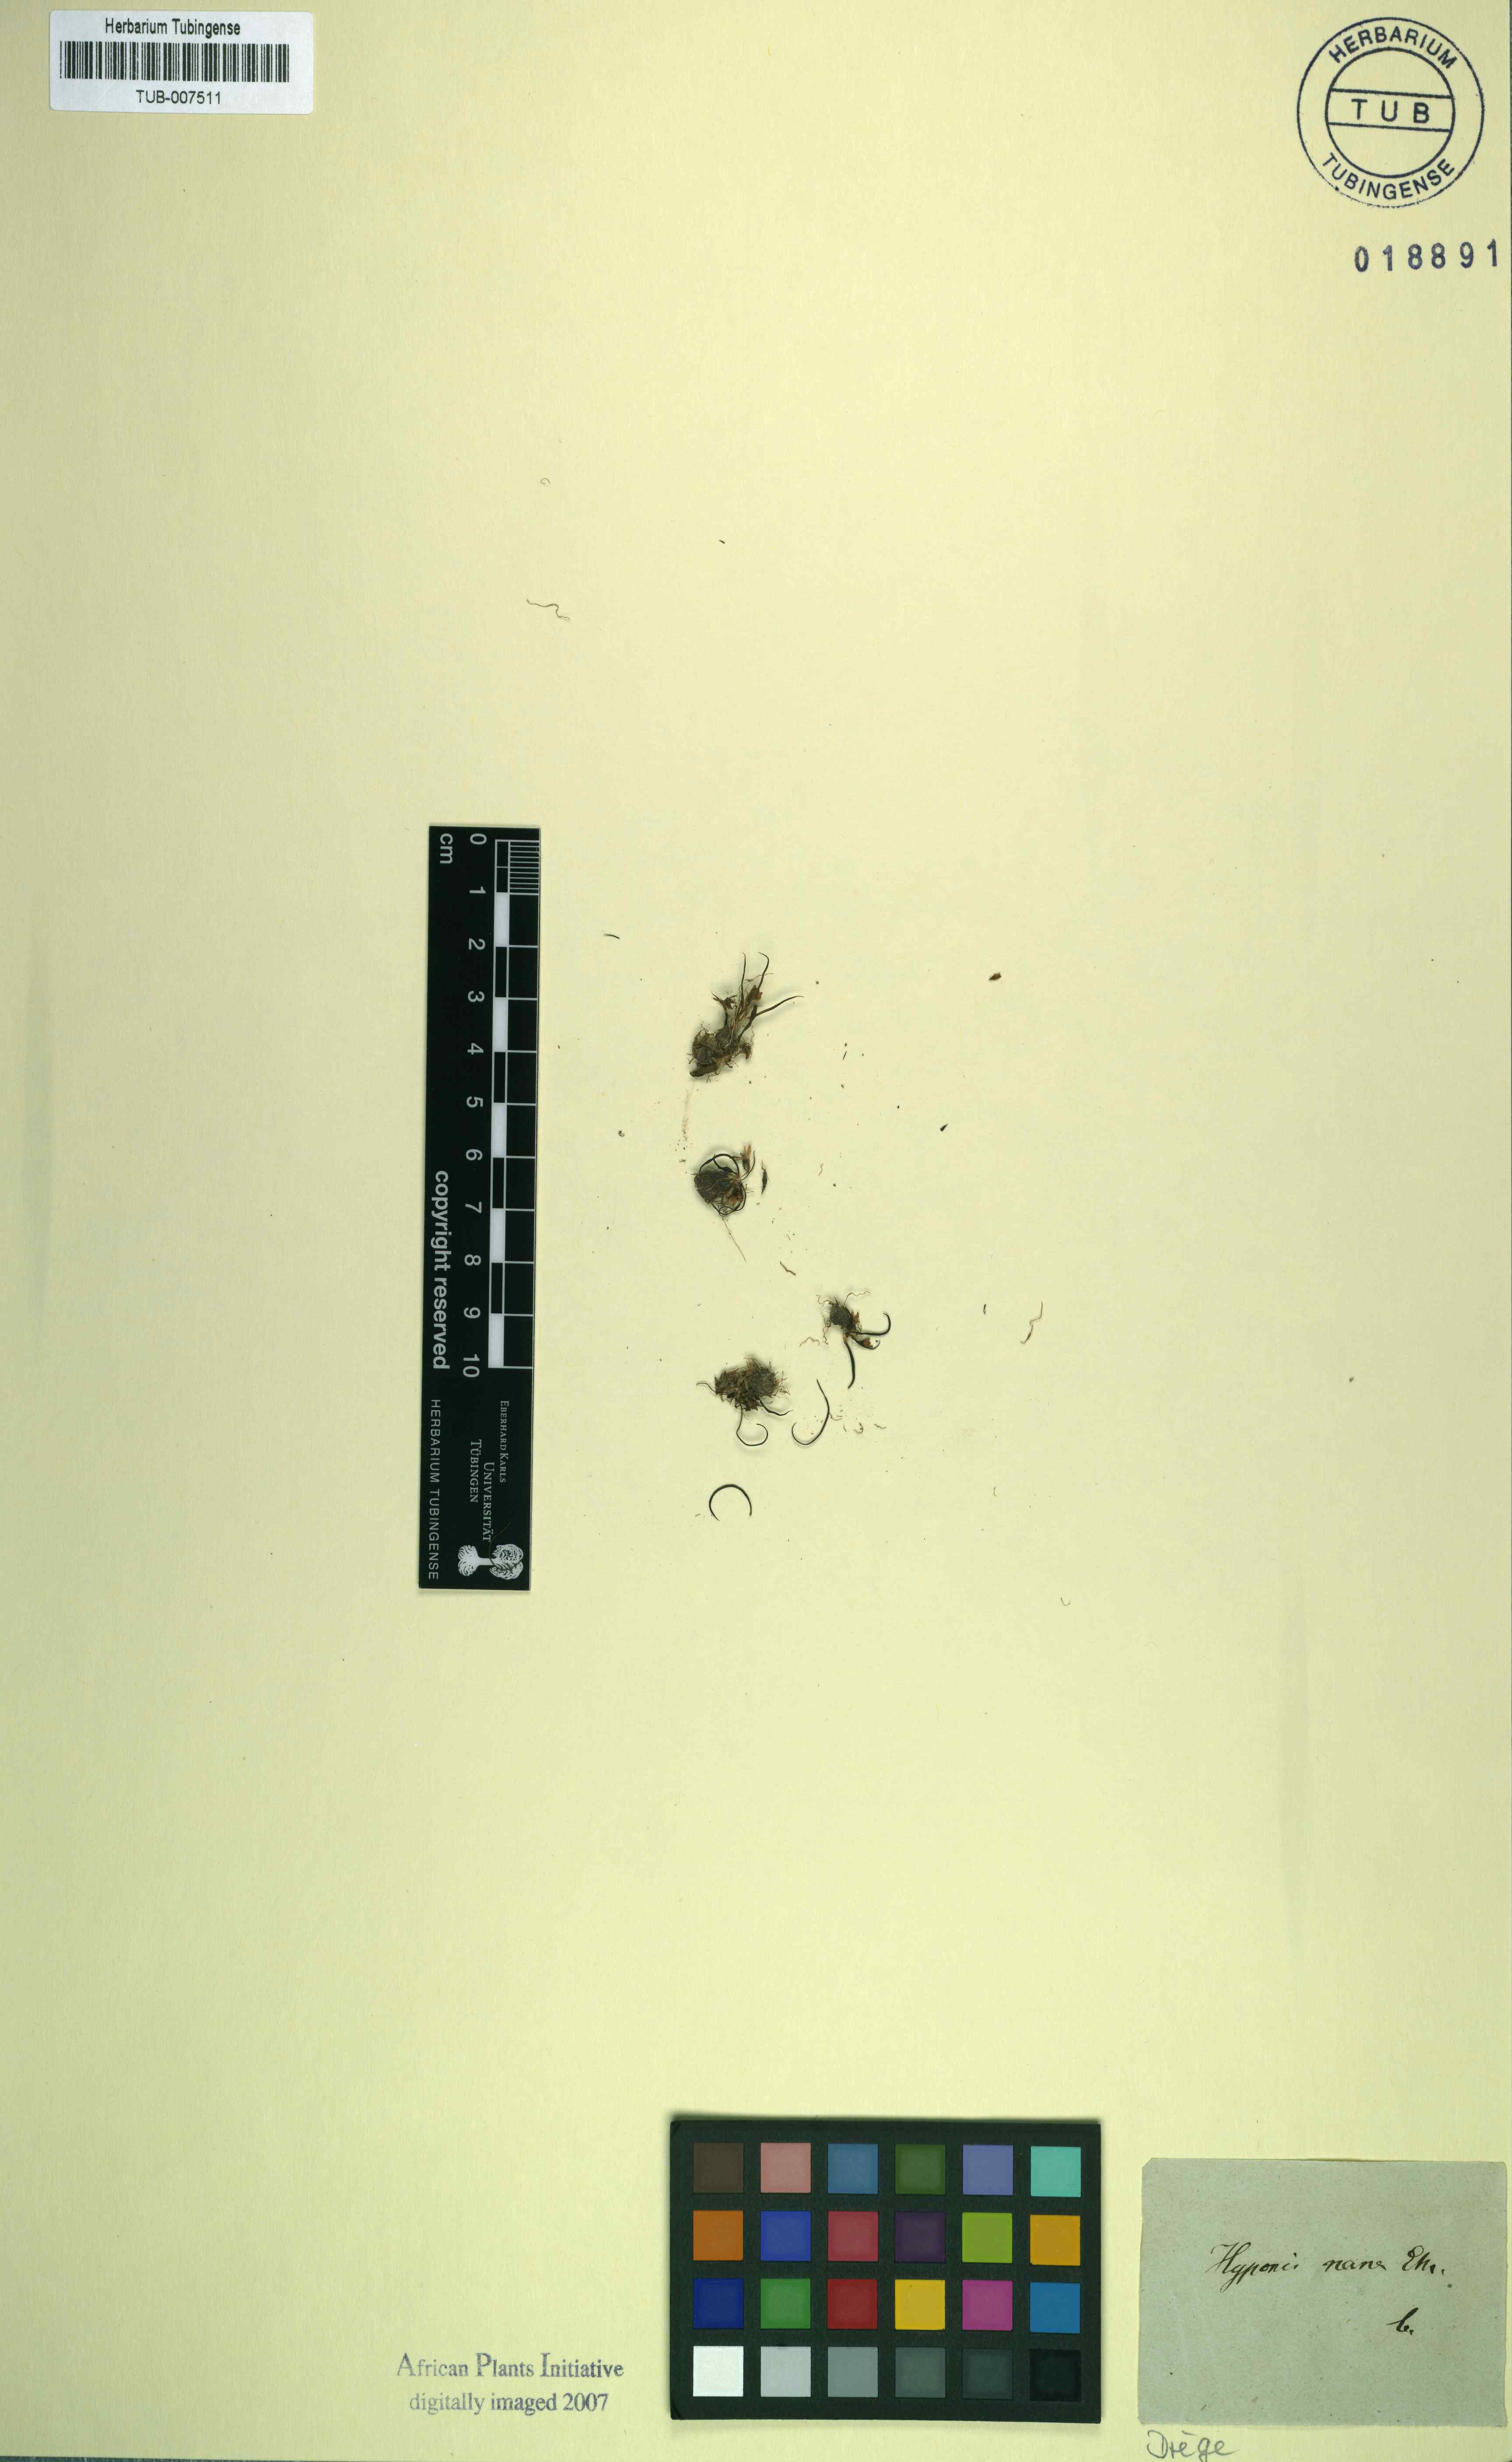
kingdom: Plantae
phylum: Tracheophyta
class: Liliopsida
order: Asparagales
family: Hypoxidaceae
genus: Pauridia
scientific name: Pauridia minuta
